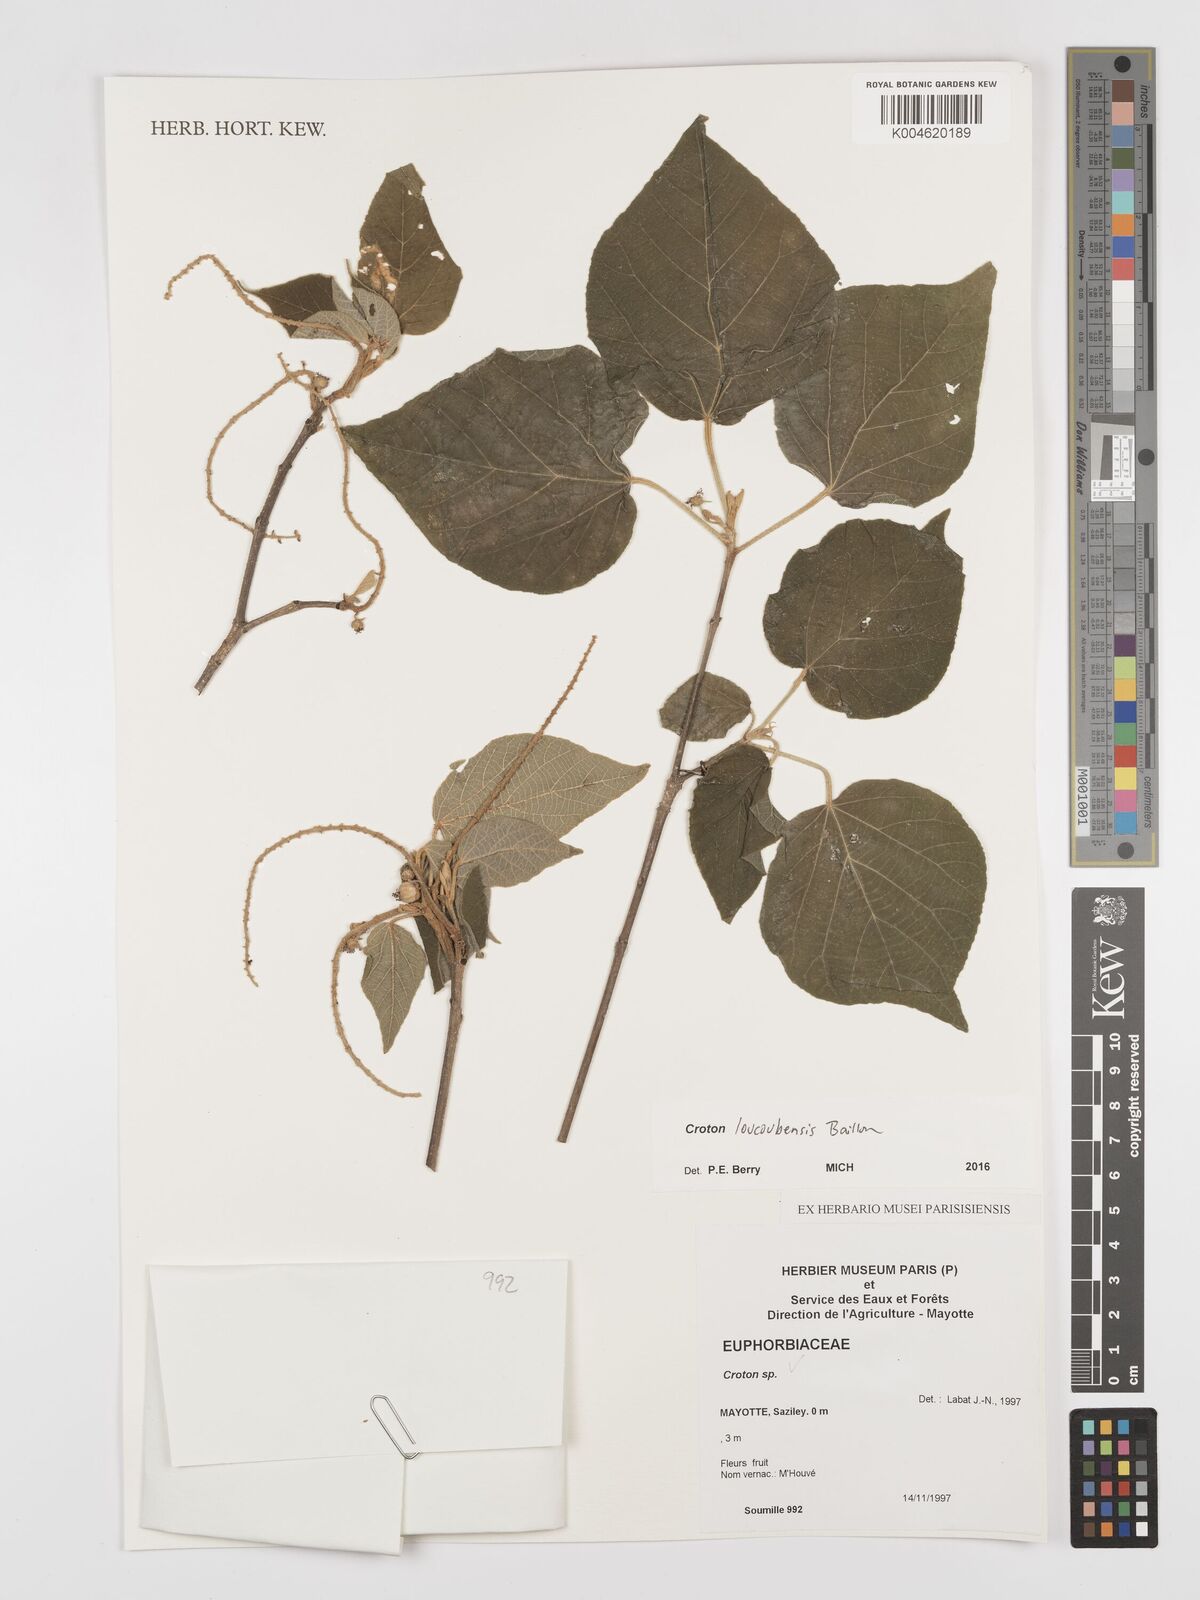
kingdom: Plantae
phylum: Tracheophyta
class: Magnoliopsida
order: Malpighiales
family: Euphorbiaceae
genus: Croton
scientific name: Croton loucoubensis
